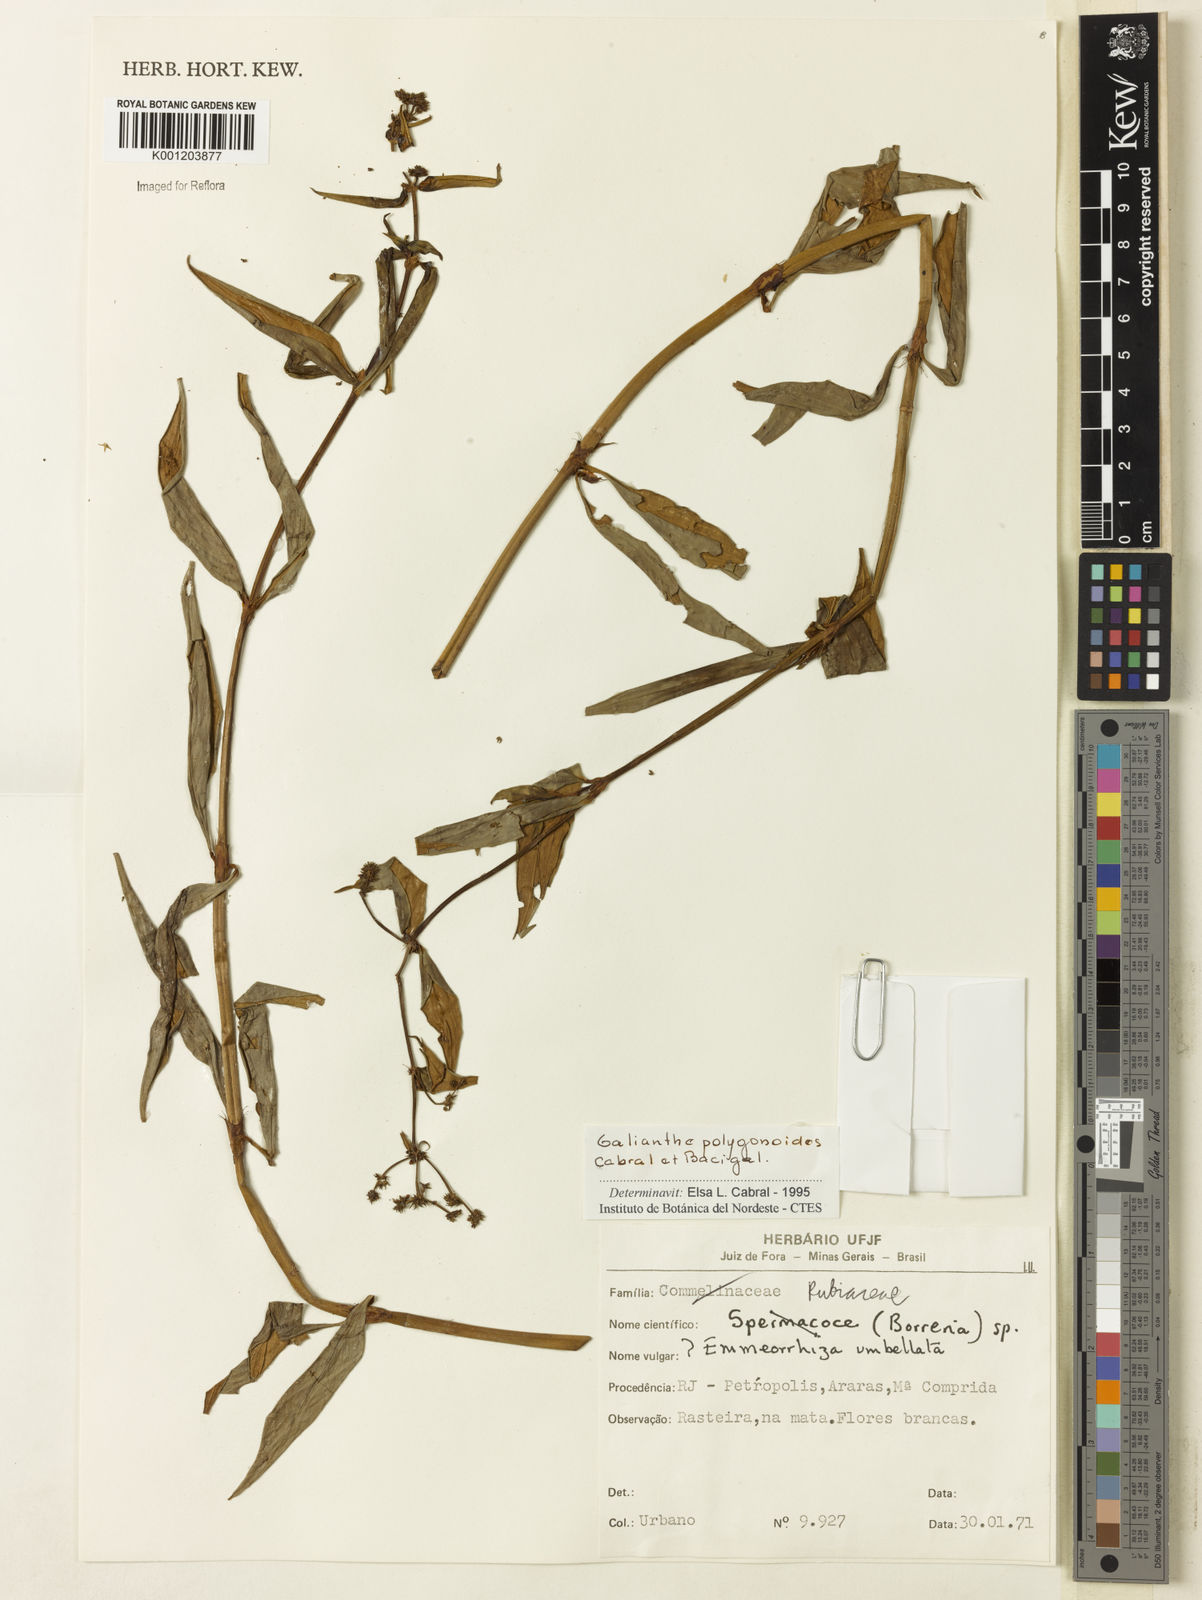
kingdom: Plantae
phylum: Tracheophyta
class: Magnoliopsida
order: Gentianales
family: Rubiaceae
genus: Galianthe
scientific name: Galianthe polygonoides
